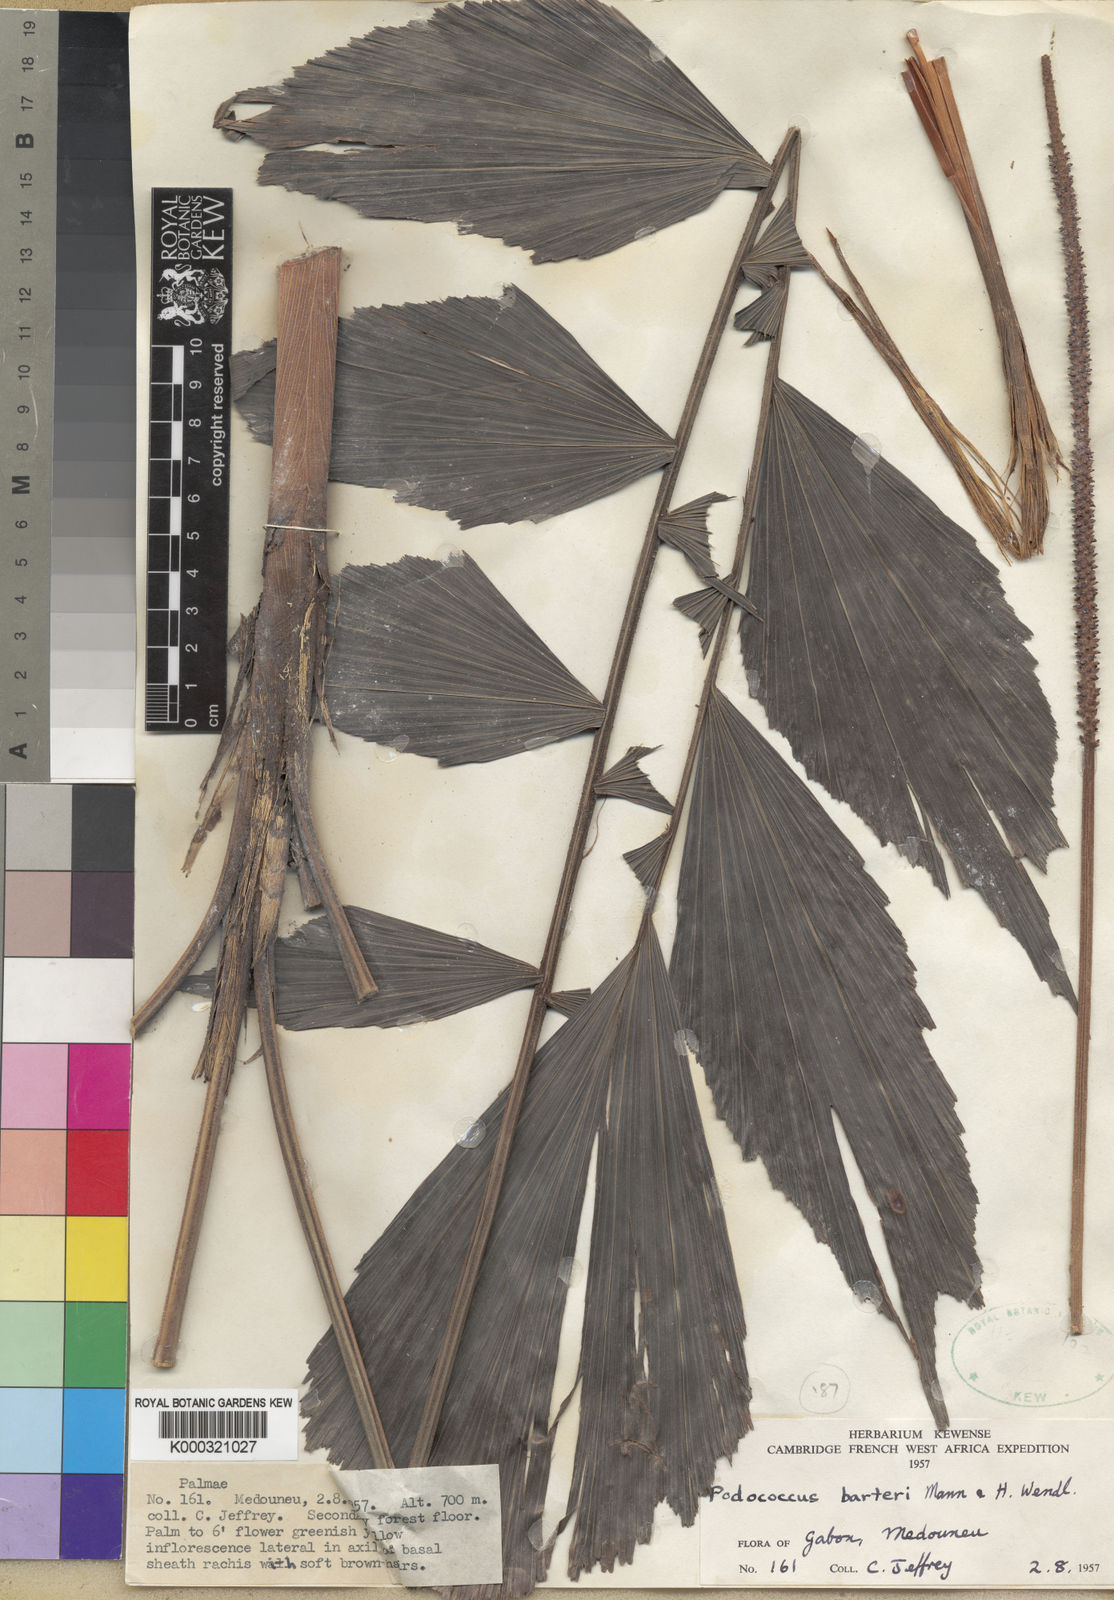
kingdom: Plantae
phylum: Tracheophyta
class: Liliopsida
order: Arecales
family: Arecaceae
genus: Podococcus
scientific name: Podococcus barteri
